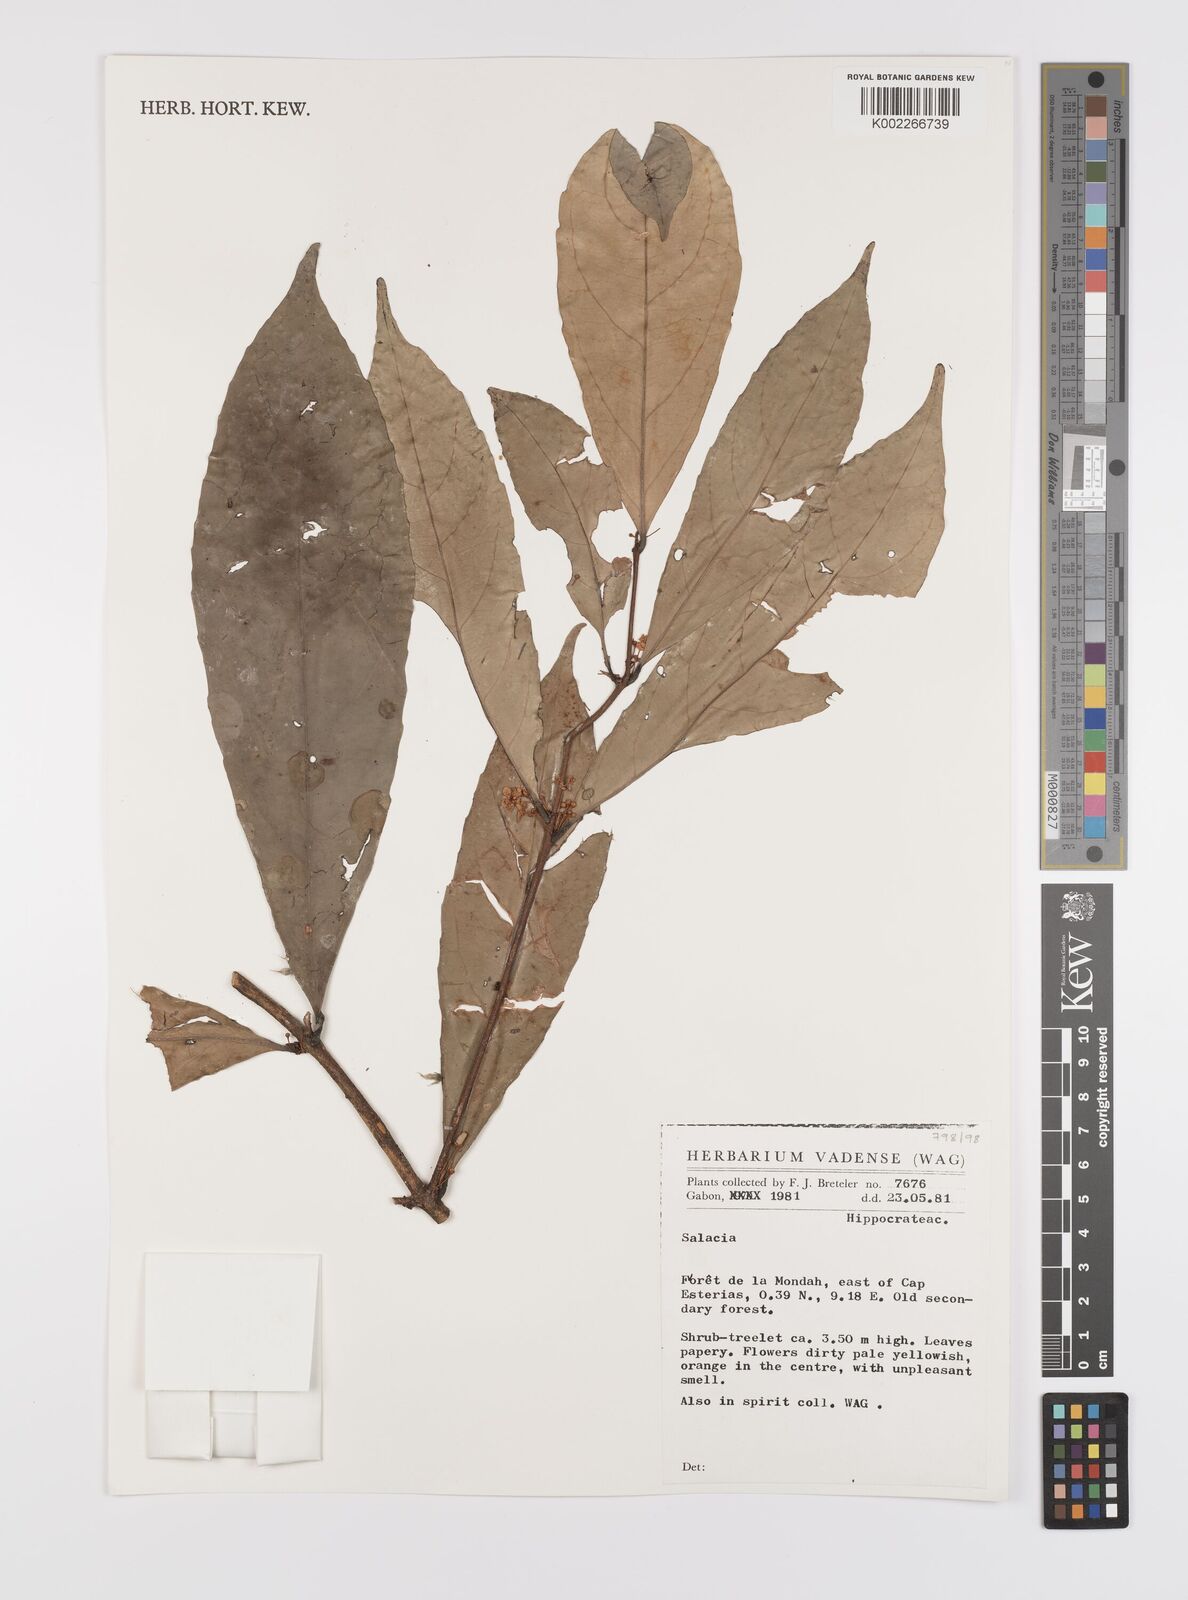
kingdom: Plantae
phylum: Tracheophyta
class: Magnoliopsida
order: Celastrales
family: Celastraceae
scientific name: Celastraceae
